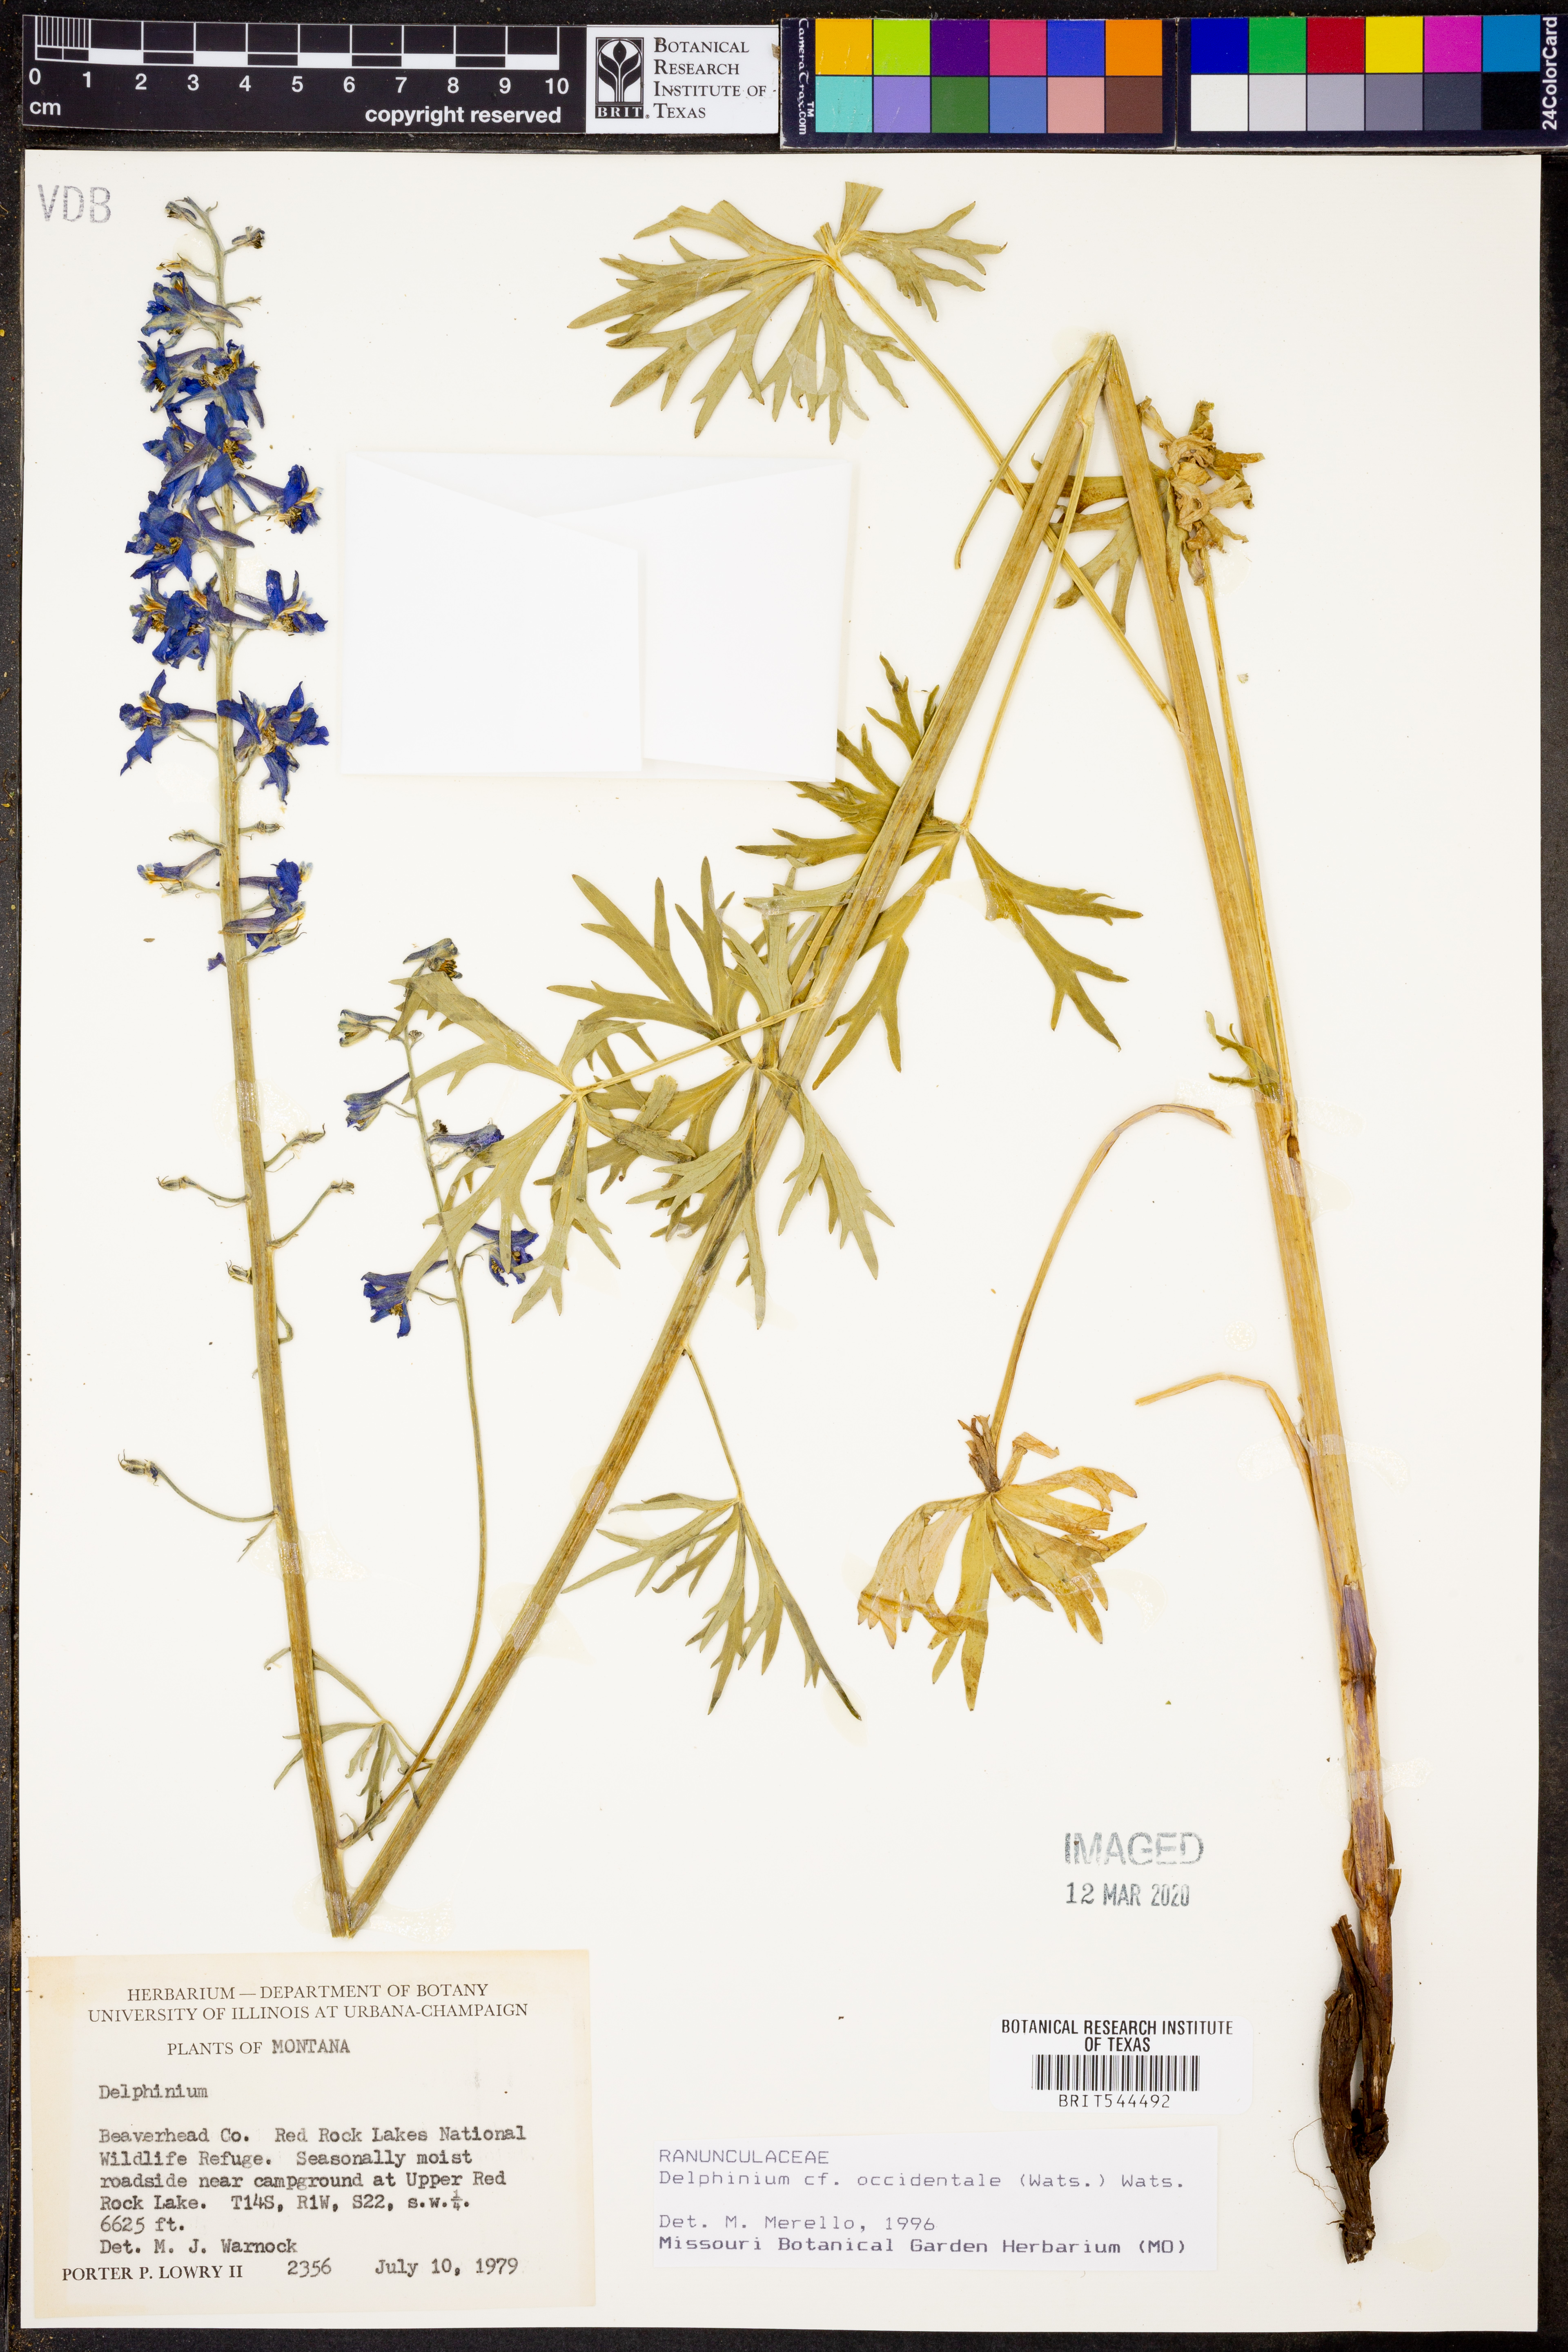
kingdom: Plantae
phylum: Tracheophyta
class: Magnoliopsida
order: Ranunculales
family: Ranunculaceae
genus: Delphinium
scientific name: Delphinium occidentale
